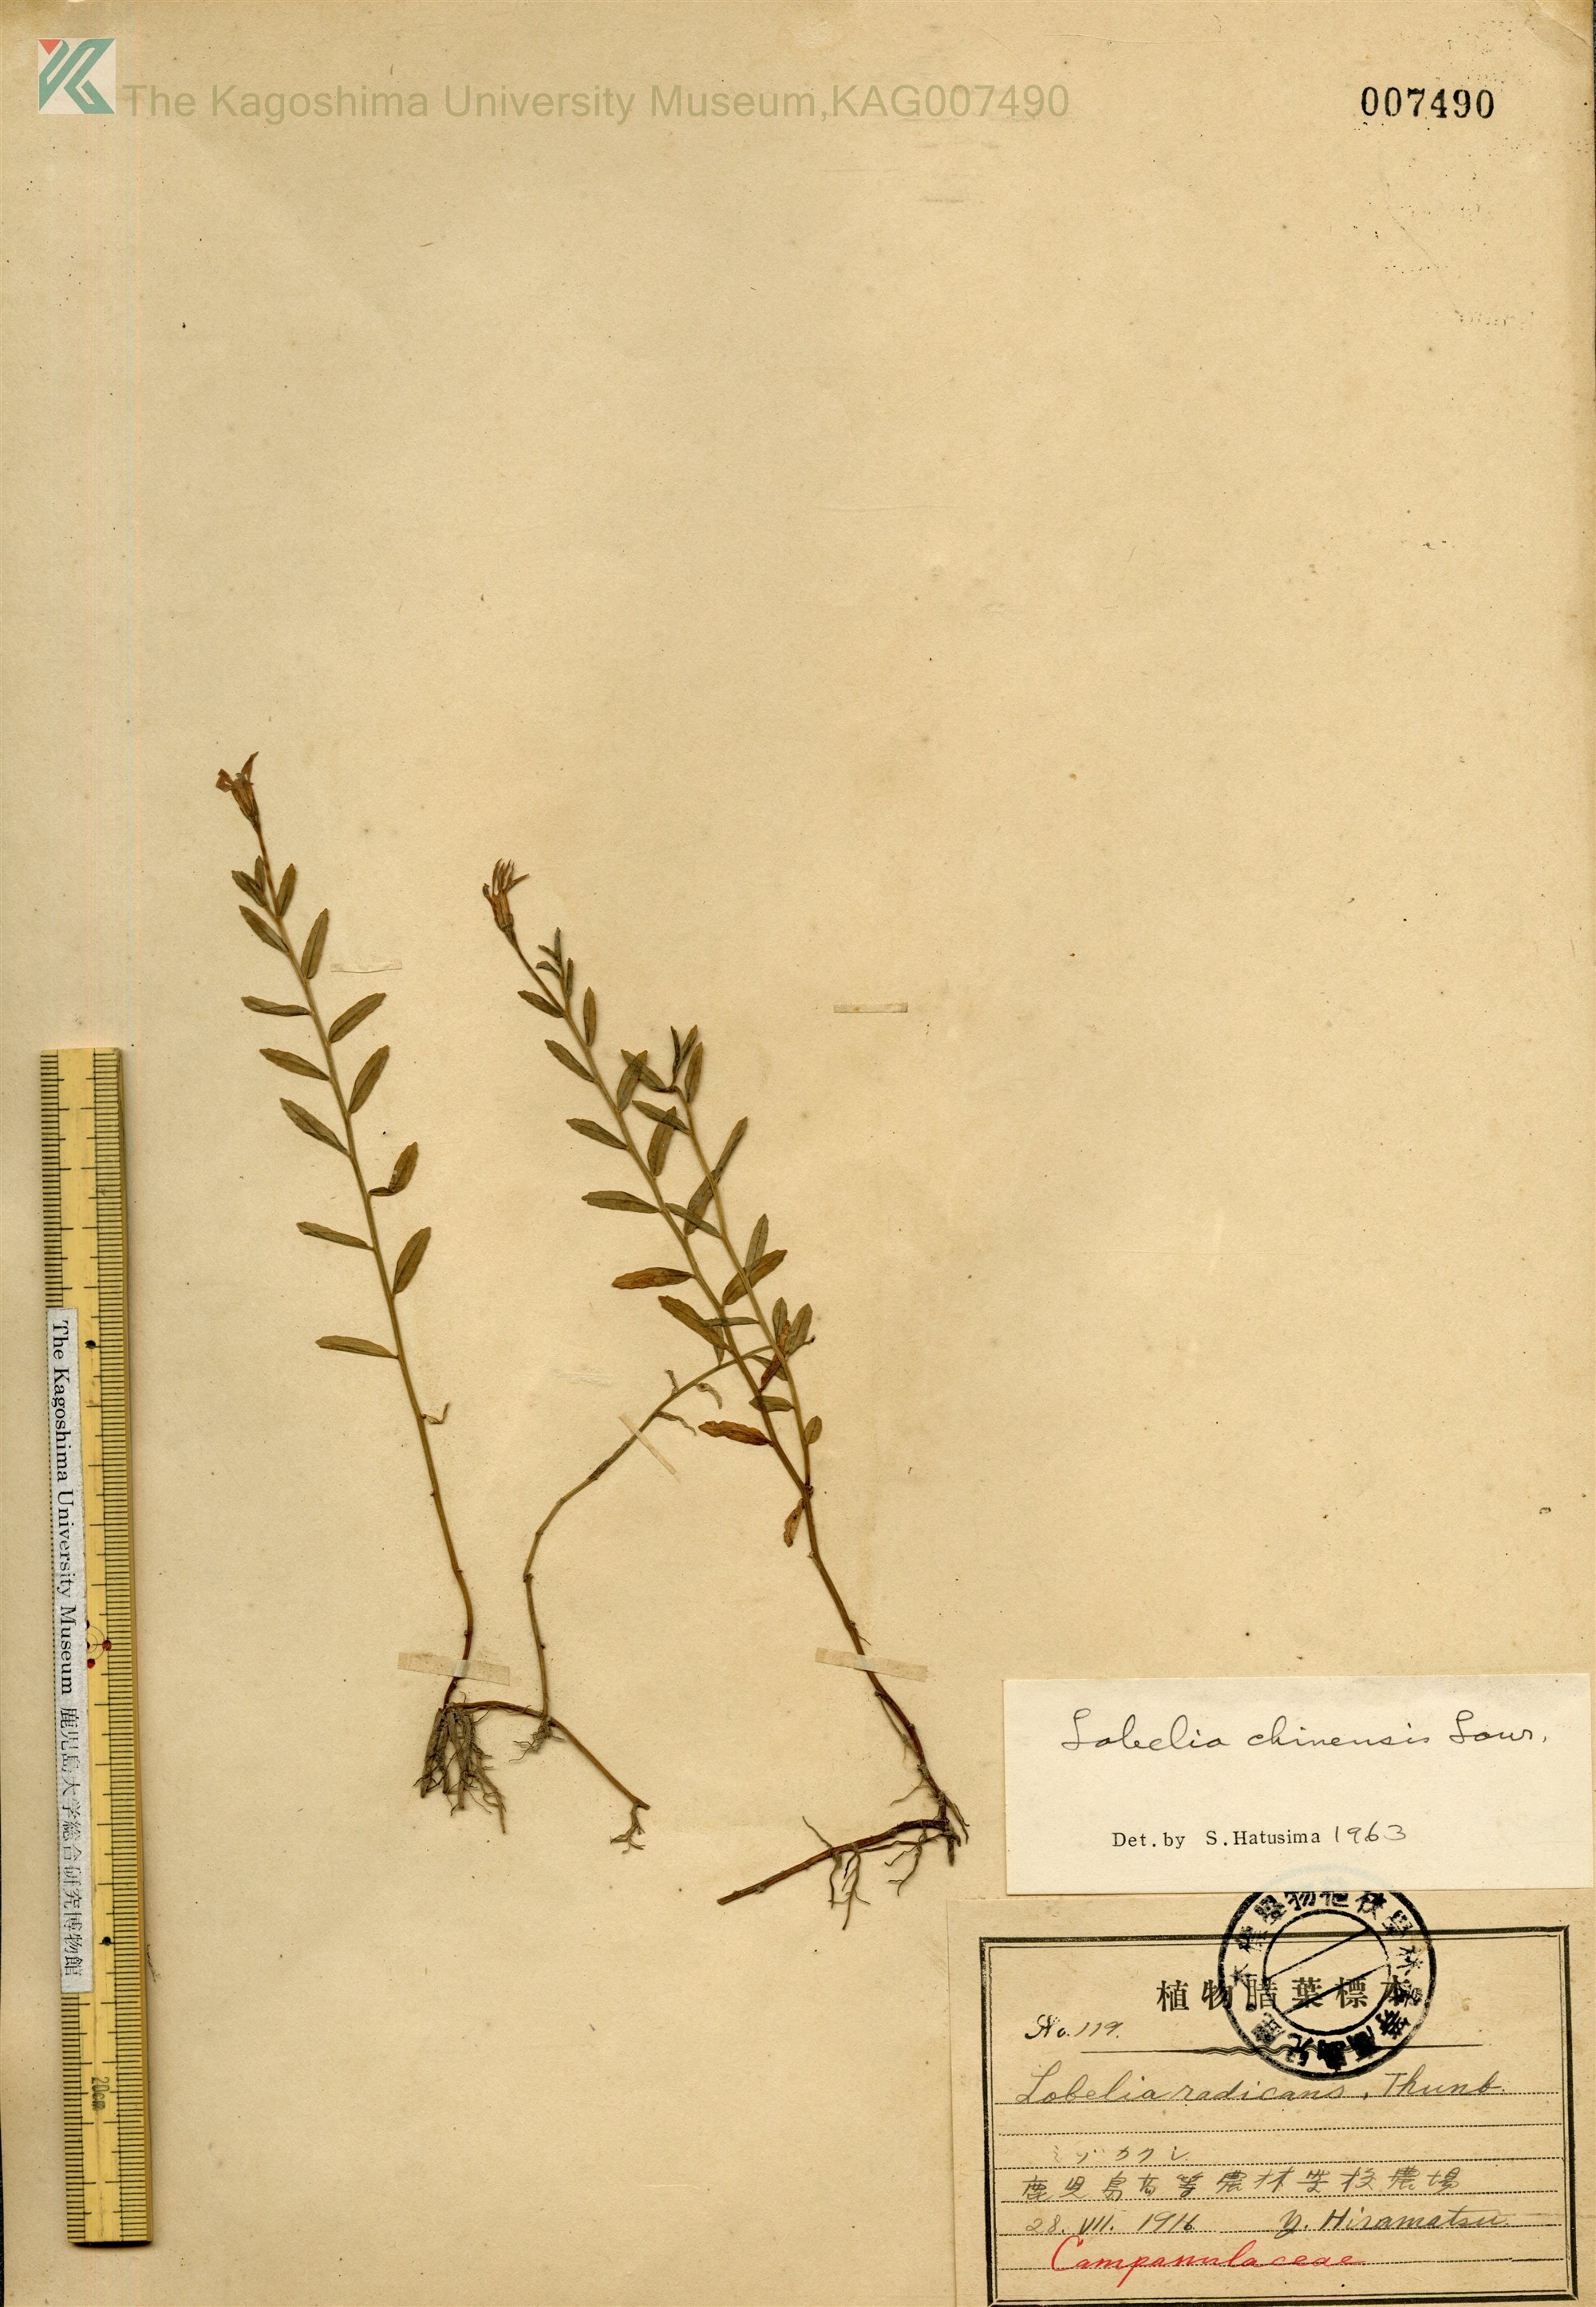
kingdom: Plantae
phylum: Tracheophyta
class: Magnoliopsida
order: Asterales
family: Campanulaceae
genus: Lobelia
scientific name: Lobelia chinensis
